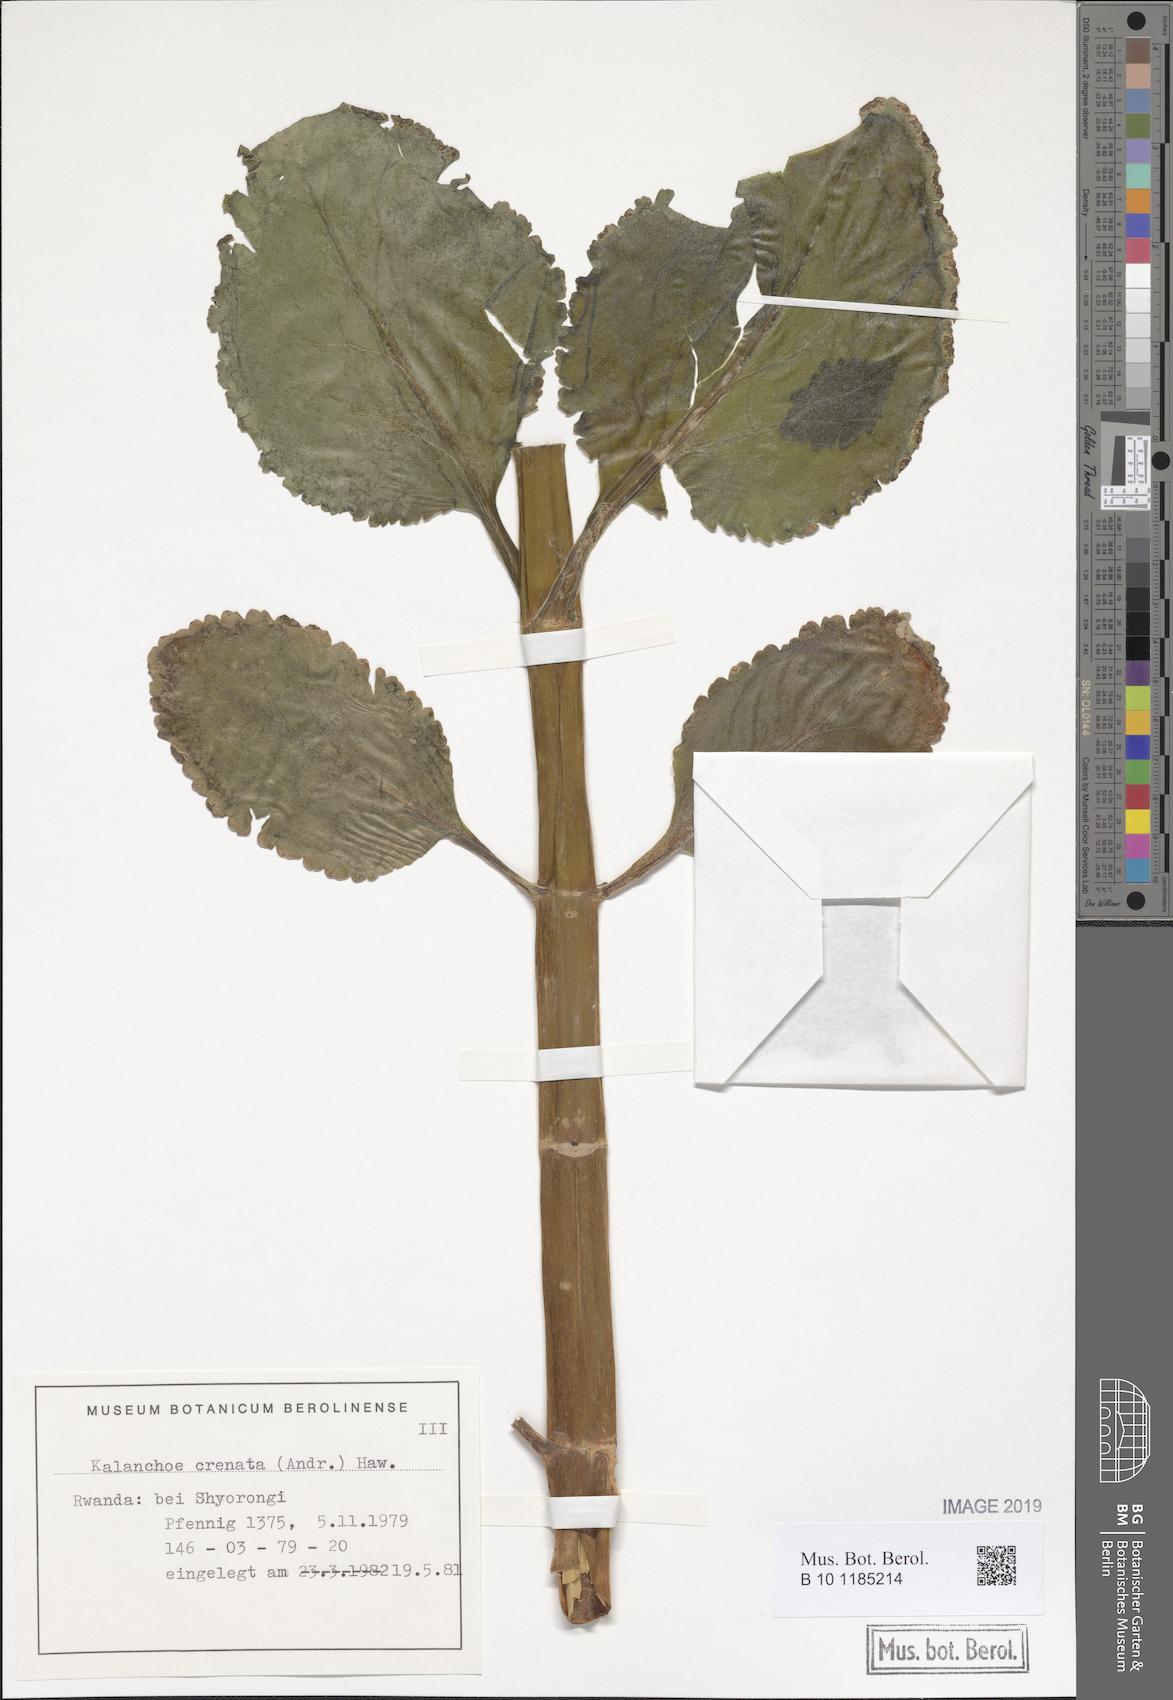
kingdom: Plantae
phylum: Tracheophyta
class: Magnoliopsida
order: Saxifragales
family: Crassulaceae
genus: Kalanchoe
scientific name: Kalanchoe crenata
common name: Neverdie
